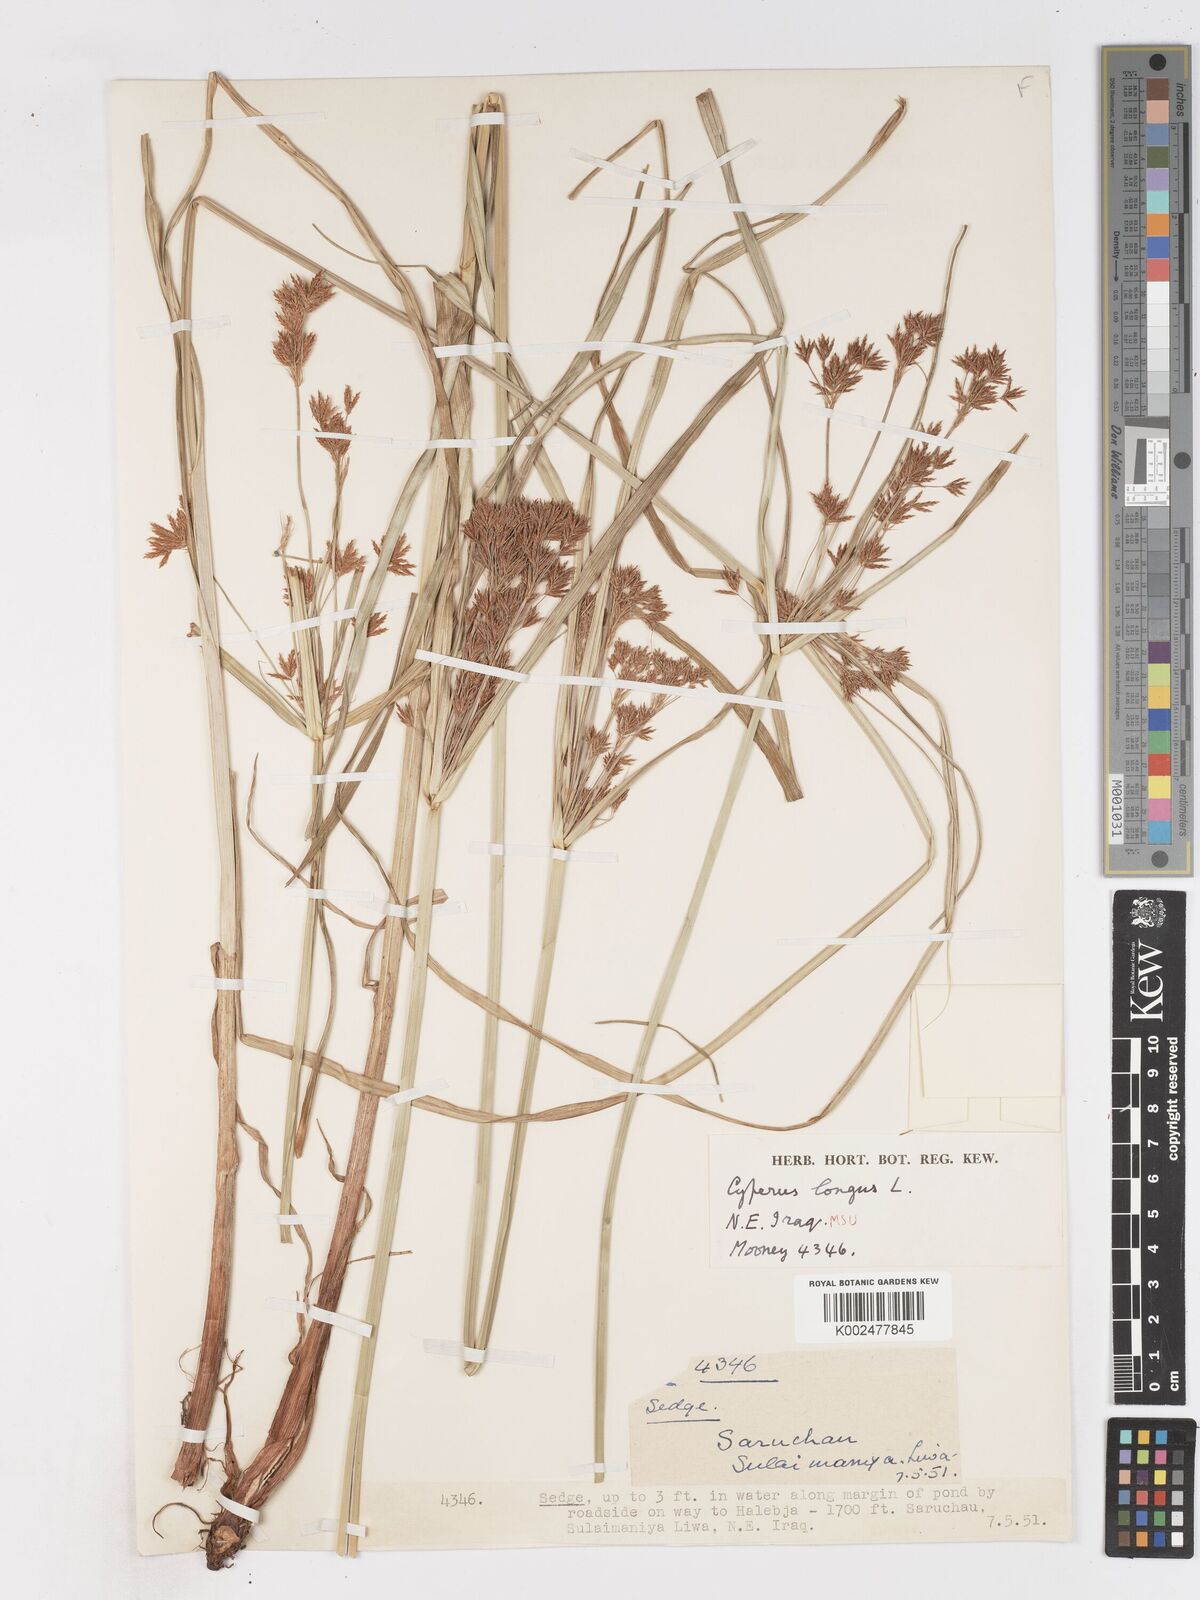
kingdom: Plantae
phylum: Tracheophyta
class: Liliopsida
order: Poales
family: Cyperaceae
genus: Cyperus
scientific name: Cyperus longus
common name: Galingale
